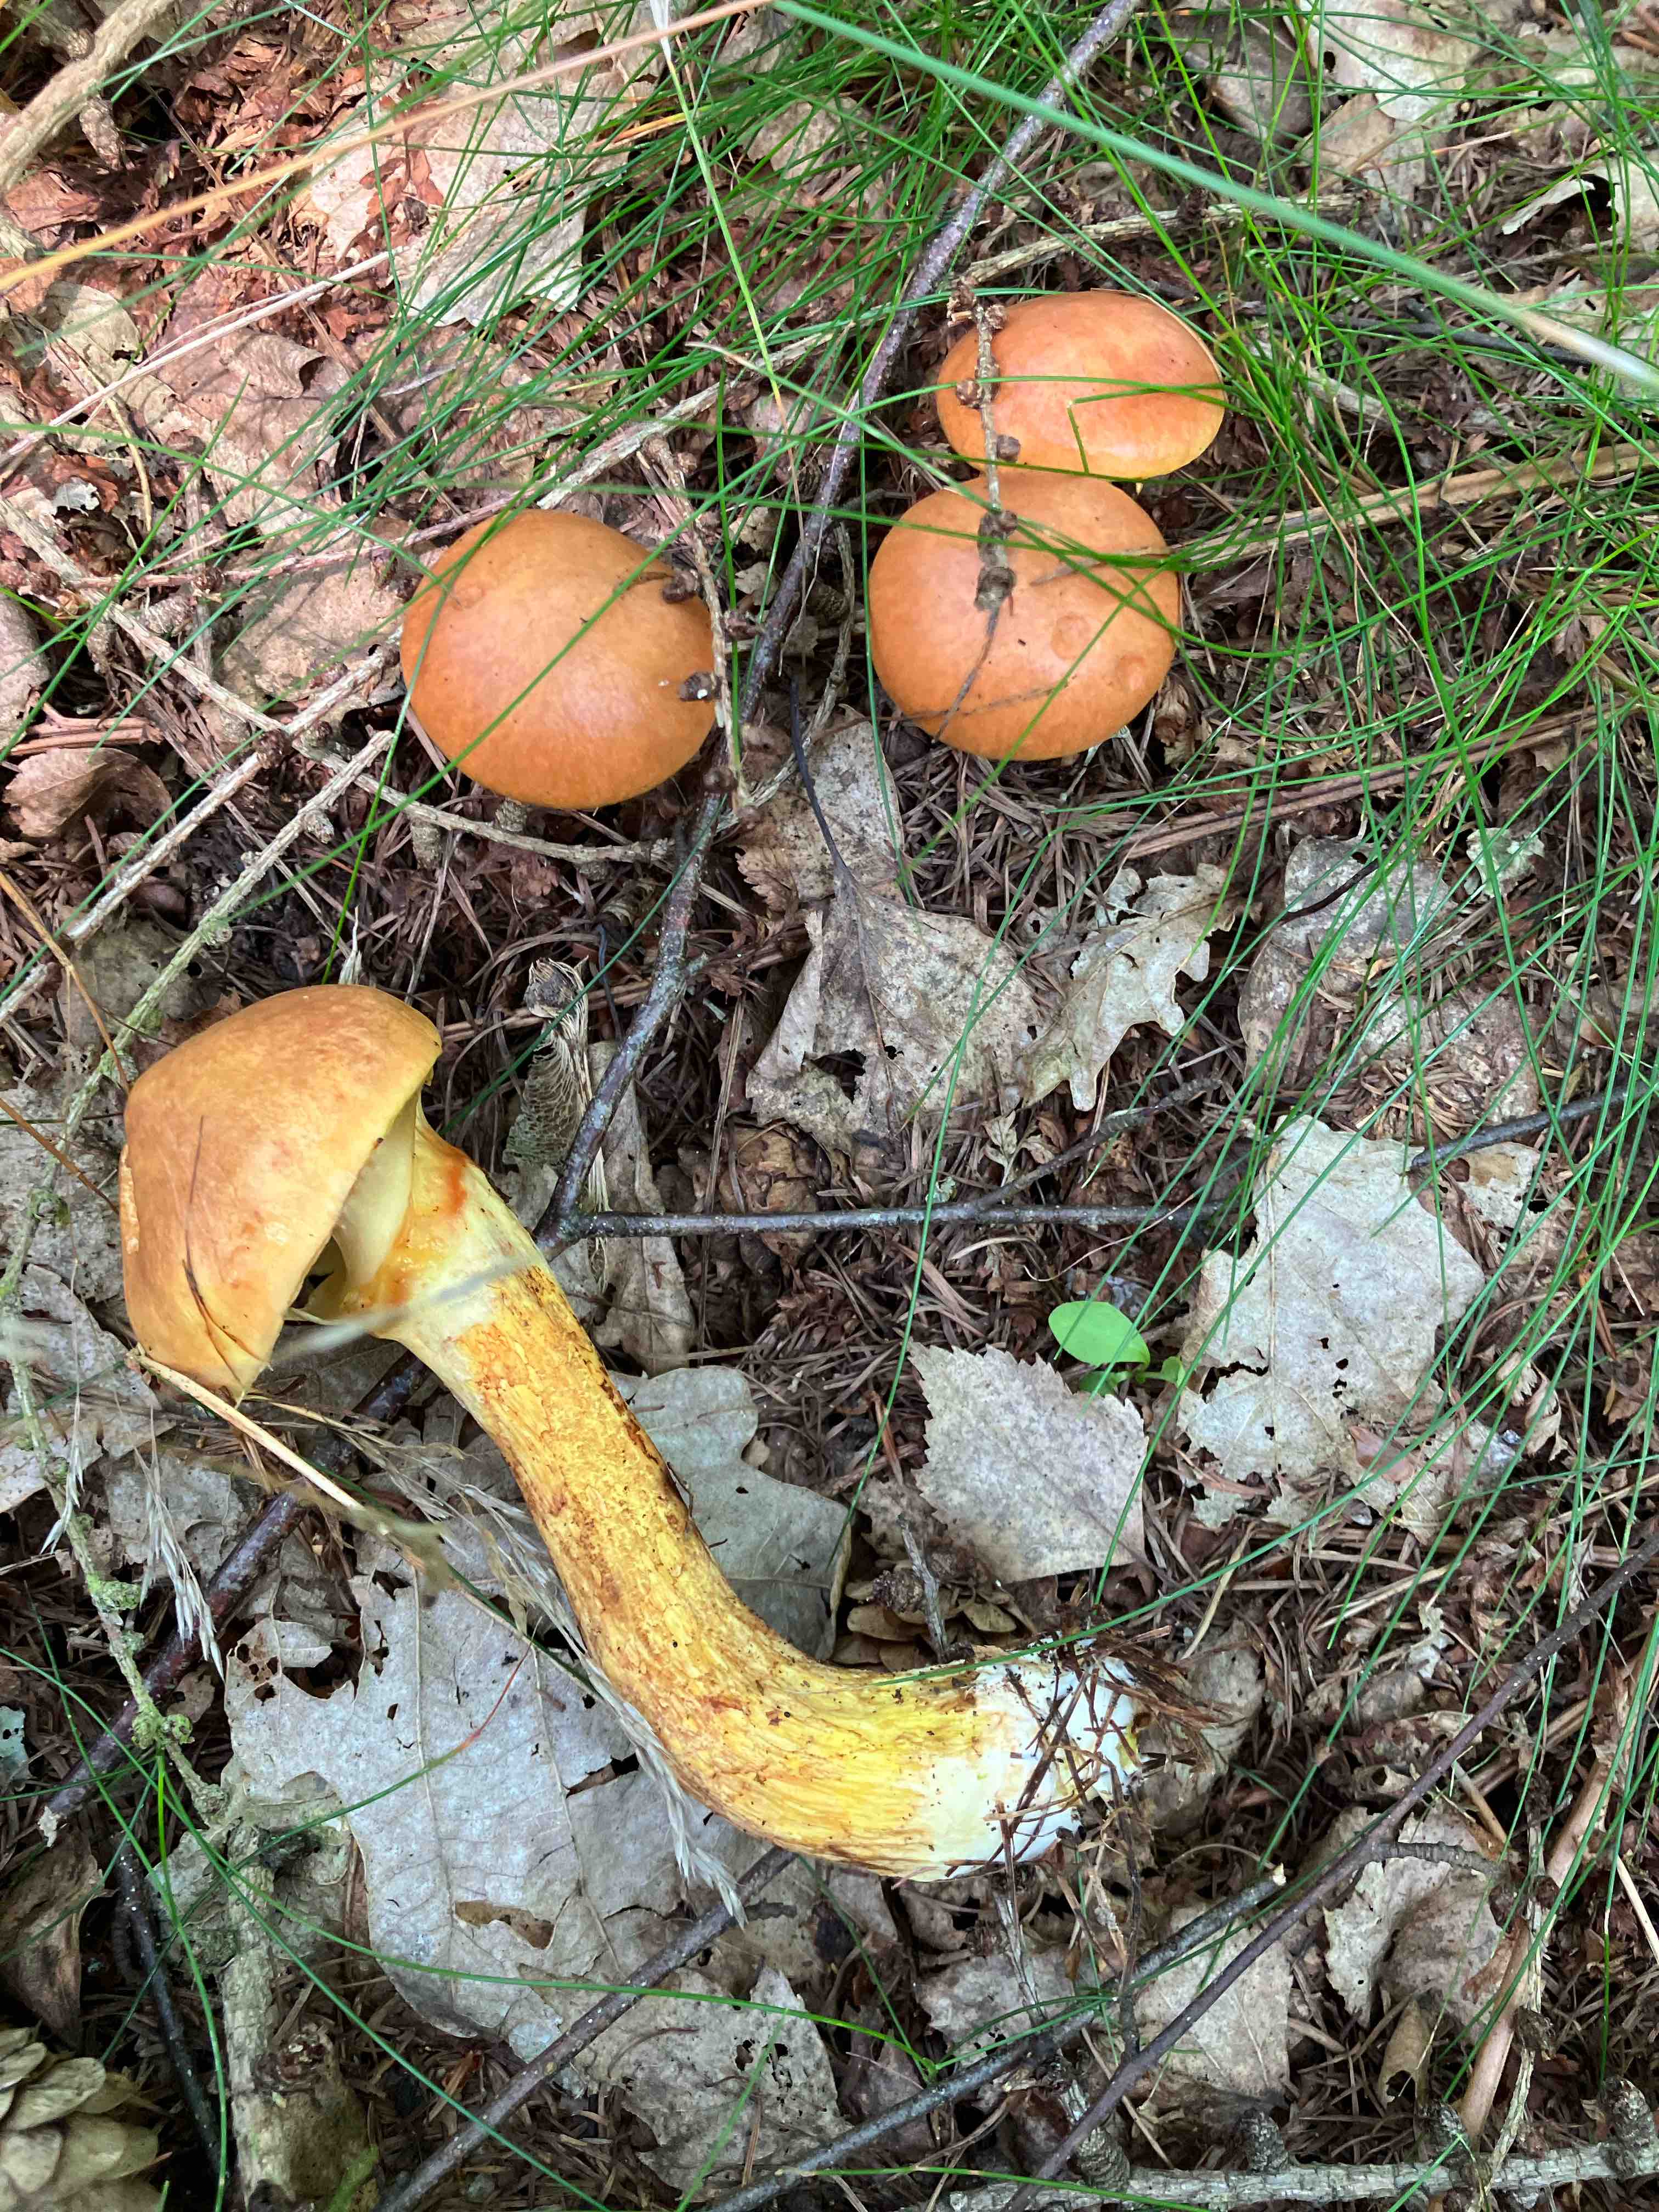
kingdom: Fungi
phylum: Basidiomycota
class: Agaricomycetes
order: Boletales
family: Suillaceae
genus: Suillus
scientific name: Suillus grevillei
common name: lærke-slimrørhat
